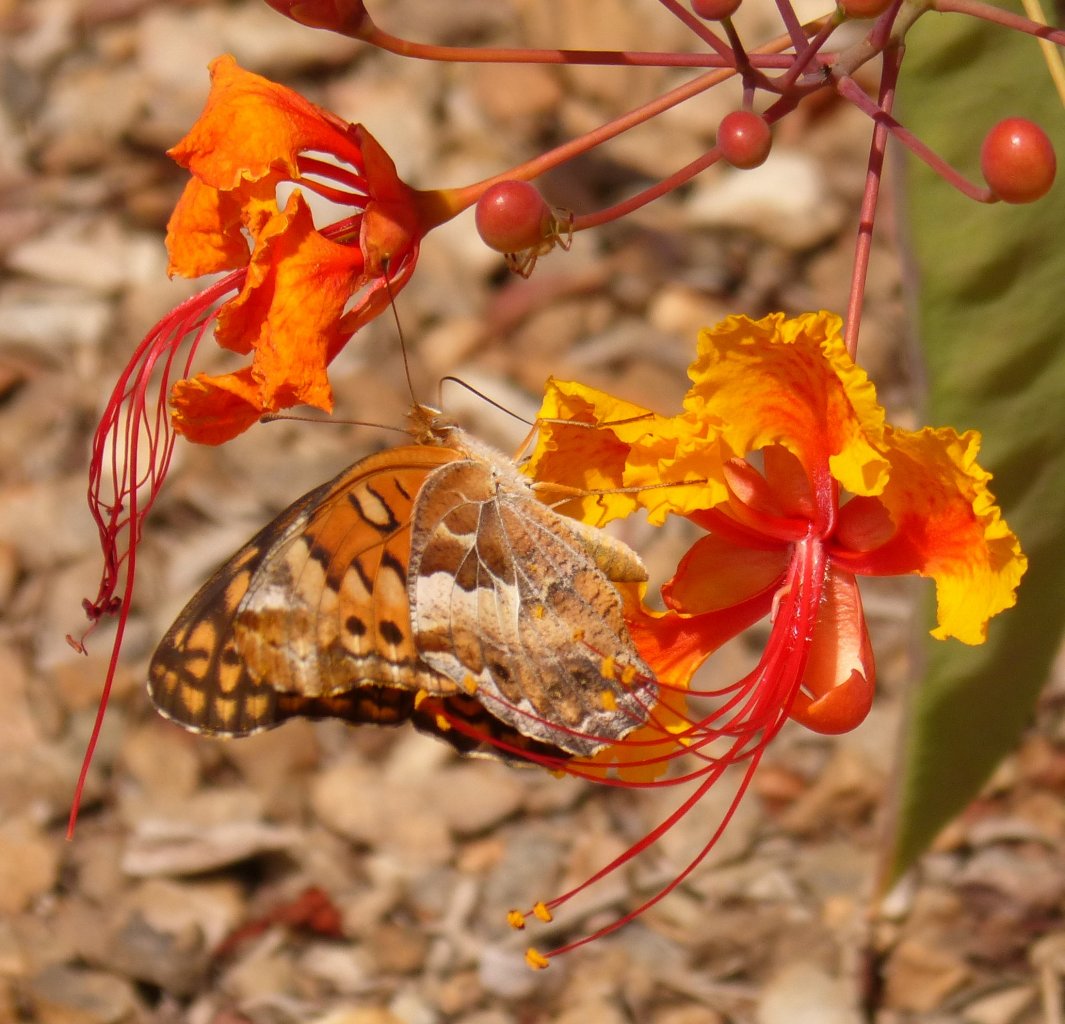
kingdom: Animalia
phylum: Arthropoda
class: Insecta
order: Lepidoptera
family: Nymphalidae
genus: Euptoieta
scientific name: Euptoieta claudia
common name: Variegated Fritillary
